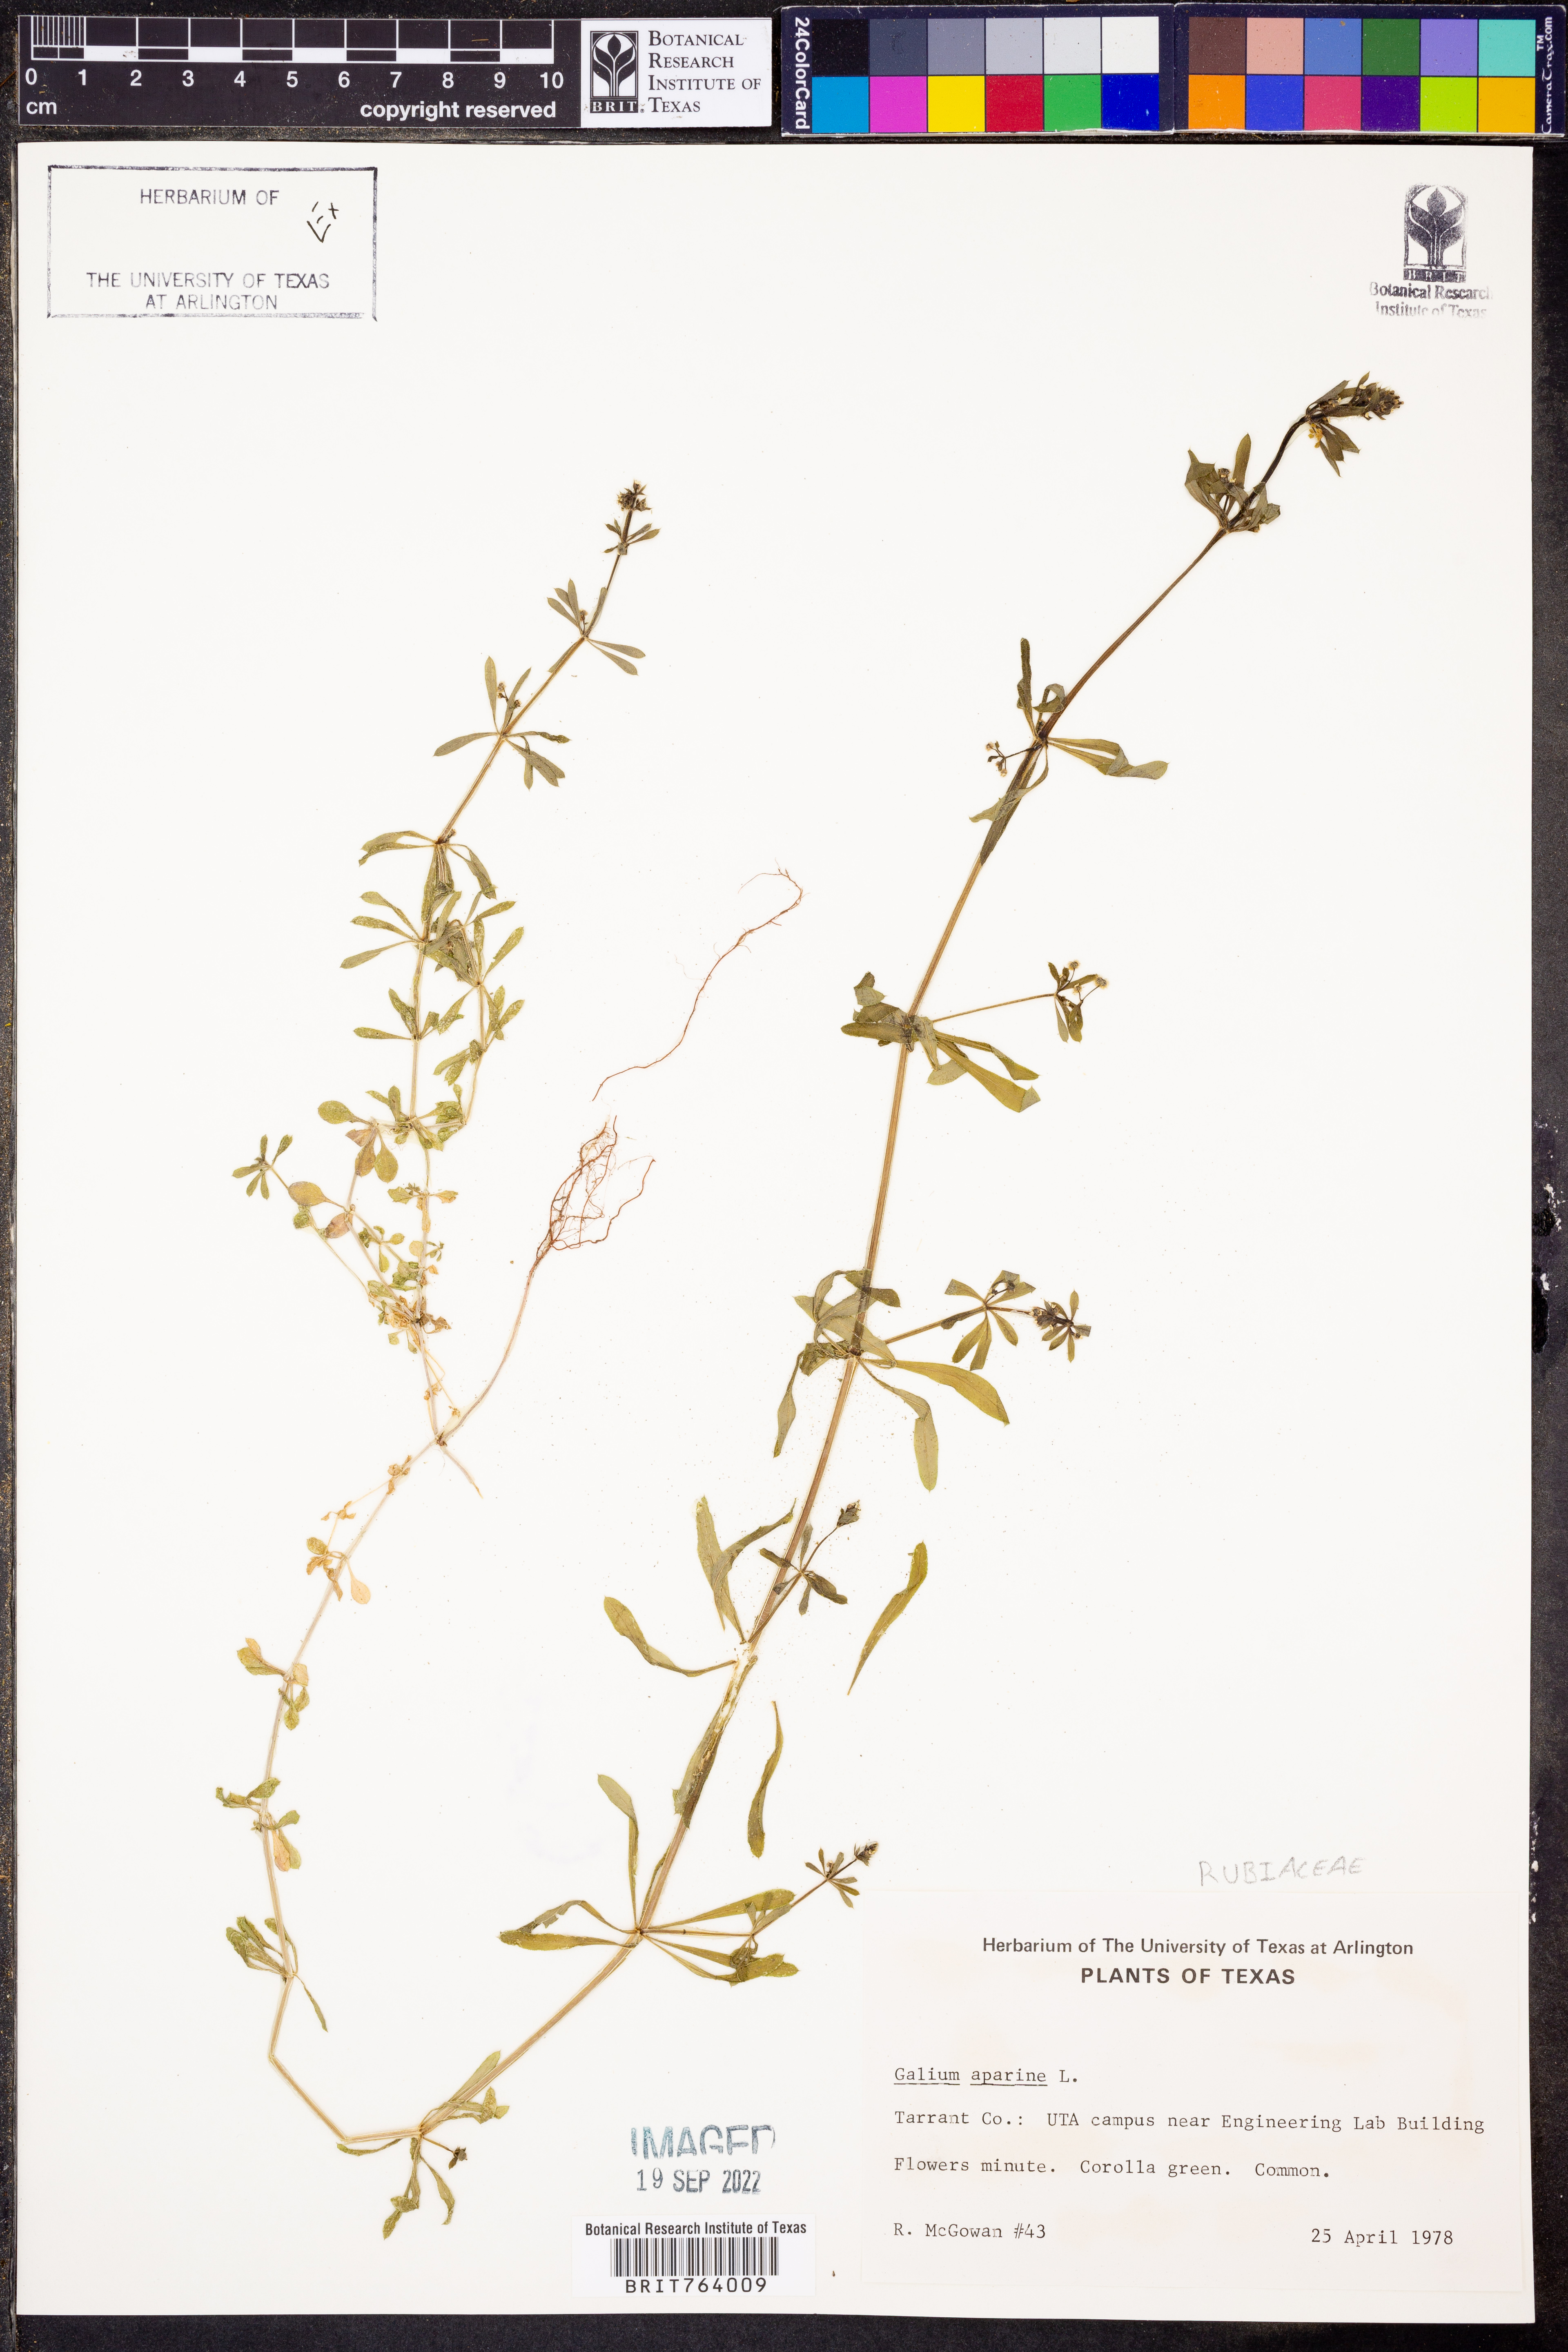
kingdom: Plantae
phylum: Tracheophyta
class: Magnoliopsida
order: Gentianales
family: Rubiaceae
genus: Galium
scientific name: Galium aparine
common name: Cleavers
